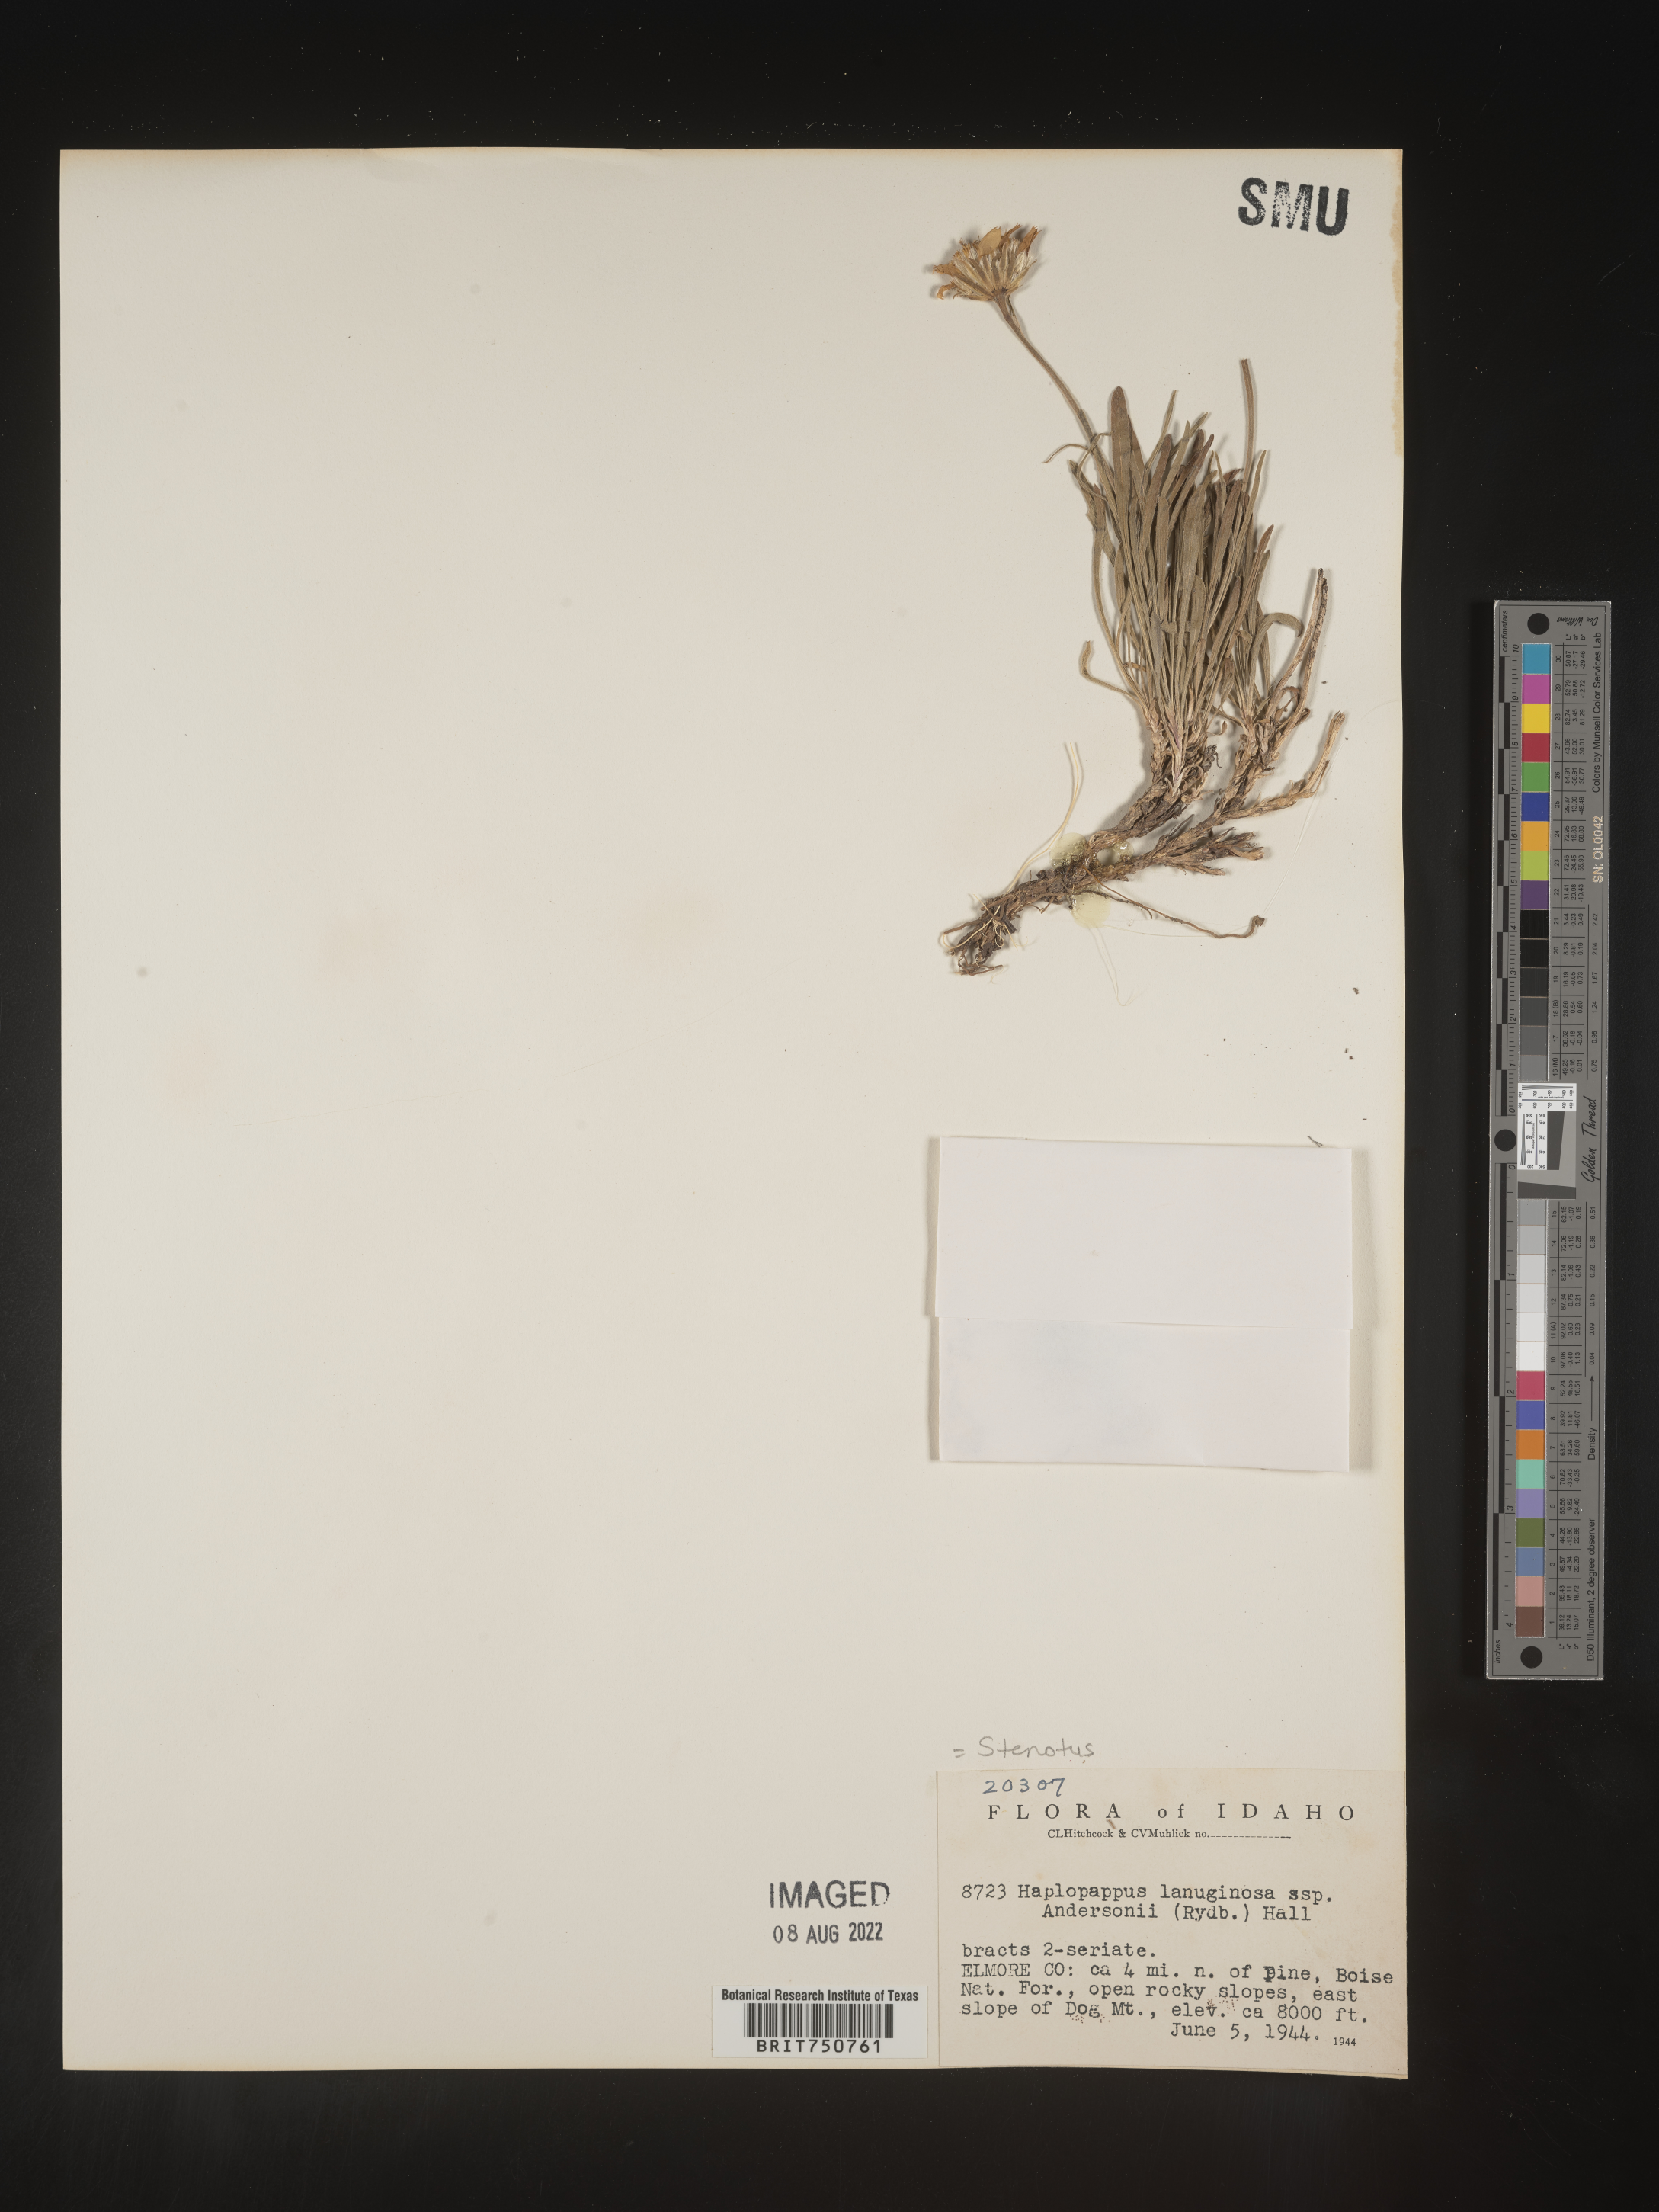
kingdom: Plantae
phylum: Tracheophyta
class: Magnoliopsida
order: Asterales
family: Asteraceae
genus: Nestotus
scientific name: Nestotus lanuginosus
